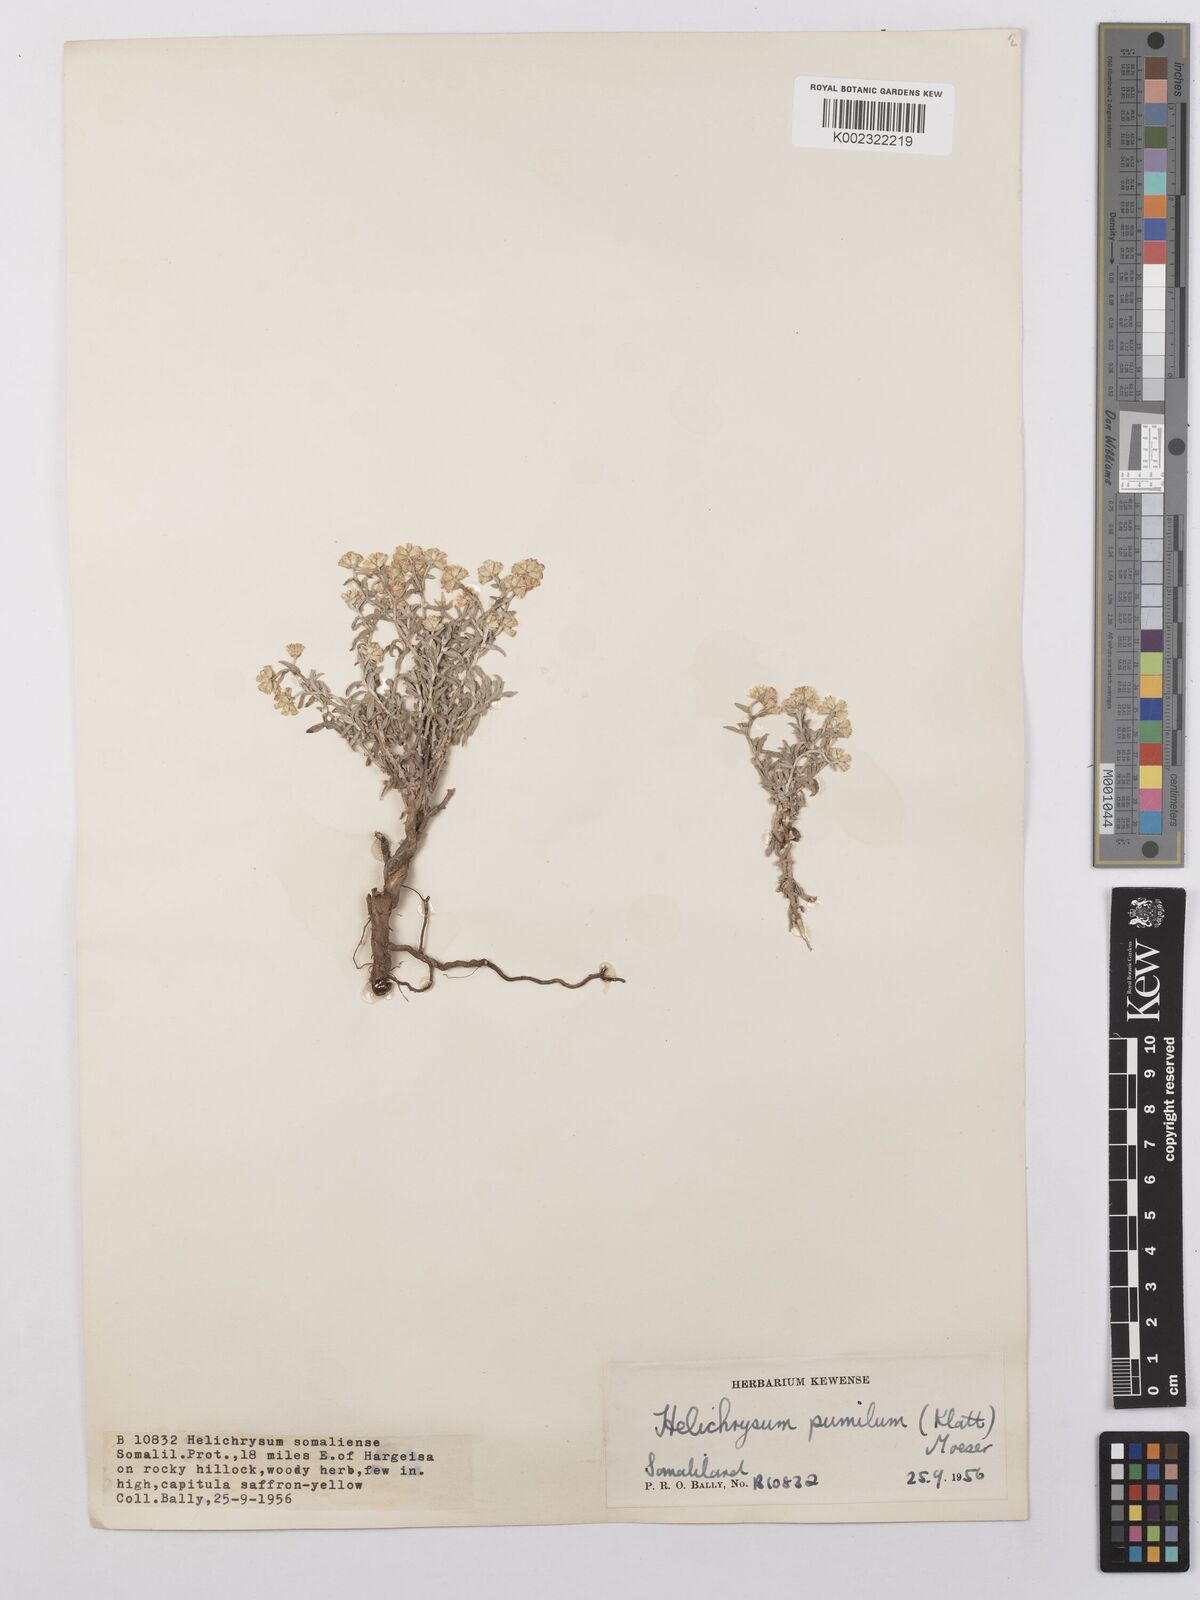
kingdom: Plantae
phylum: Tracheophyta
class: Magnoliopsida
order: Asterales
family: Asteraceae
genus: Helichrysum
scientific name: Helichrysum pumilum
